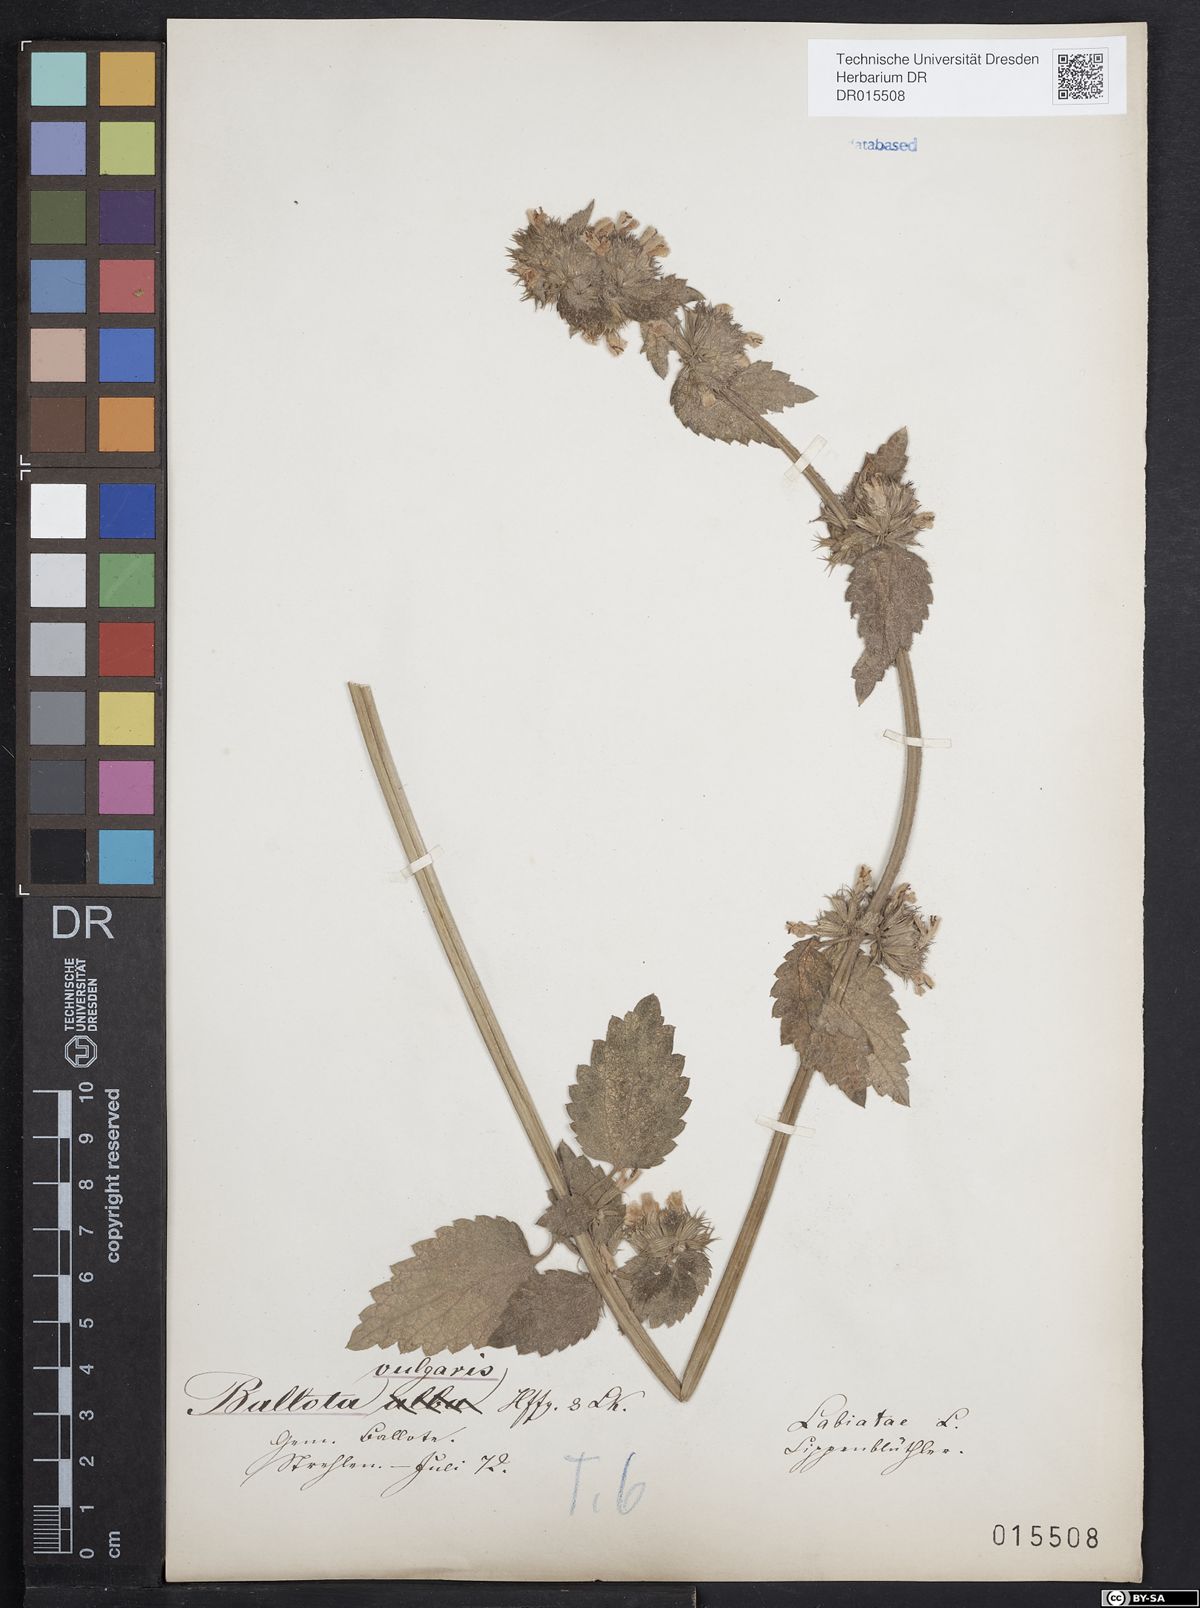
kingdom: Plantae
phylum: Tracheophyta
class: Magnoliopsida
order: Lamiales
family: Lamiaceae
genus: Ballota
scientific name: Ballota nigra
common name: Black horehound
